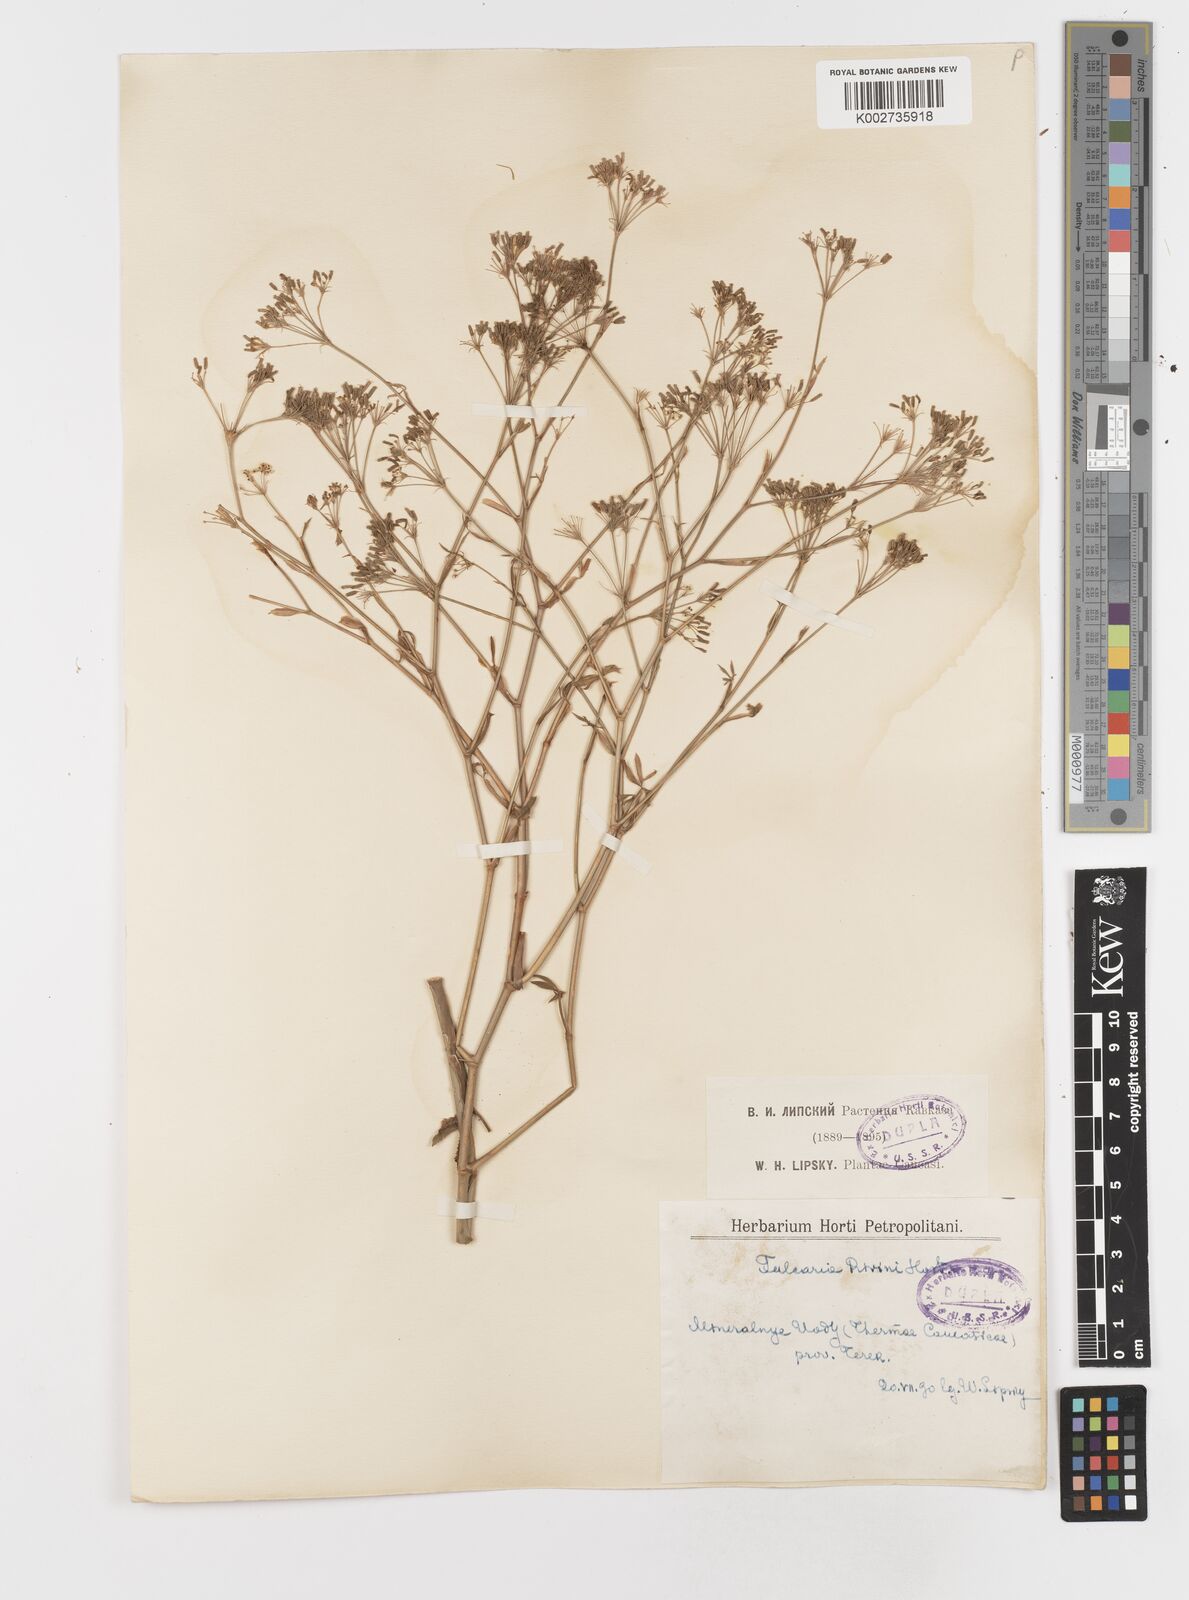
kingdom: Plantae
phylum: Tracheophyta
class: Magnoliopsida
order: Apiales
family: Apiaceae
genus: Falcaria
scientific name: Falcaria vulgaris
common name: Longleaf
